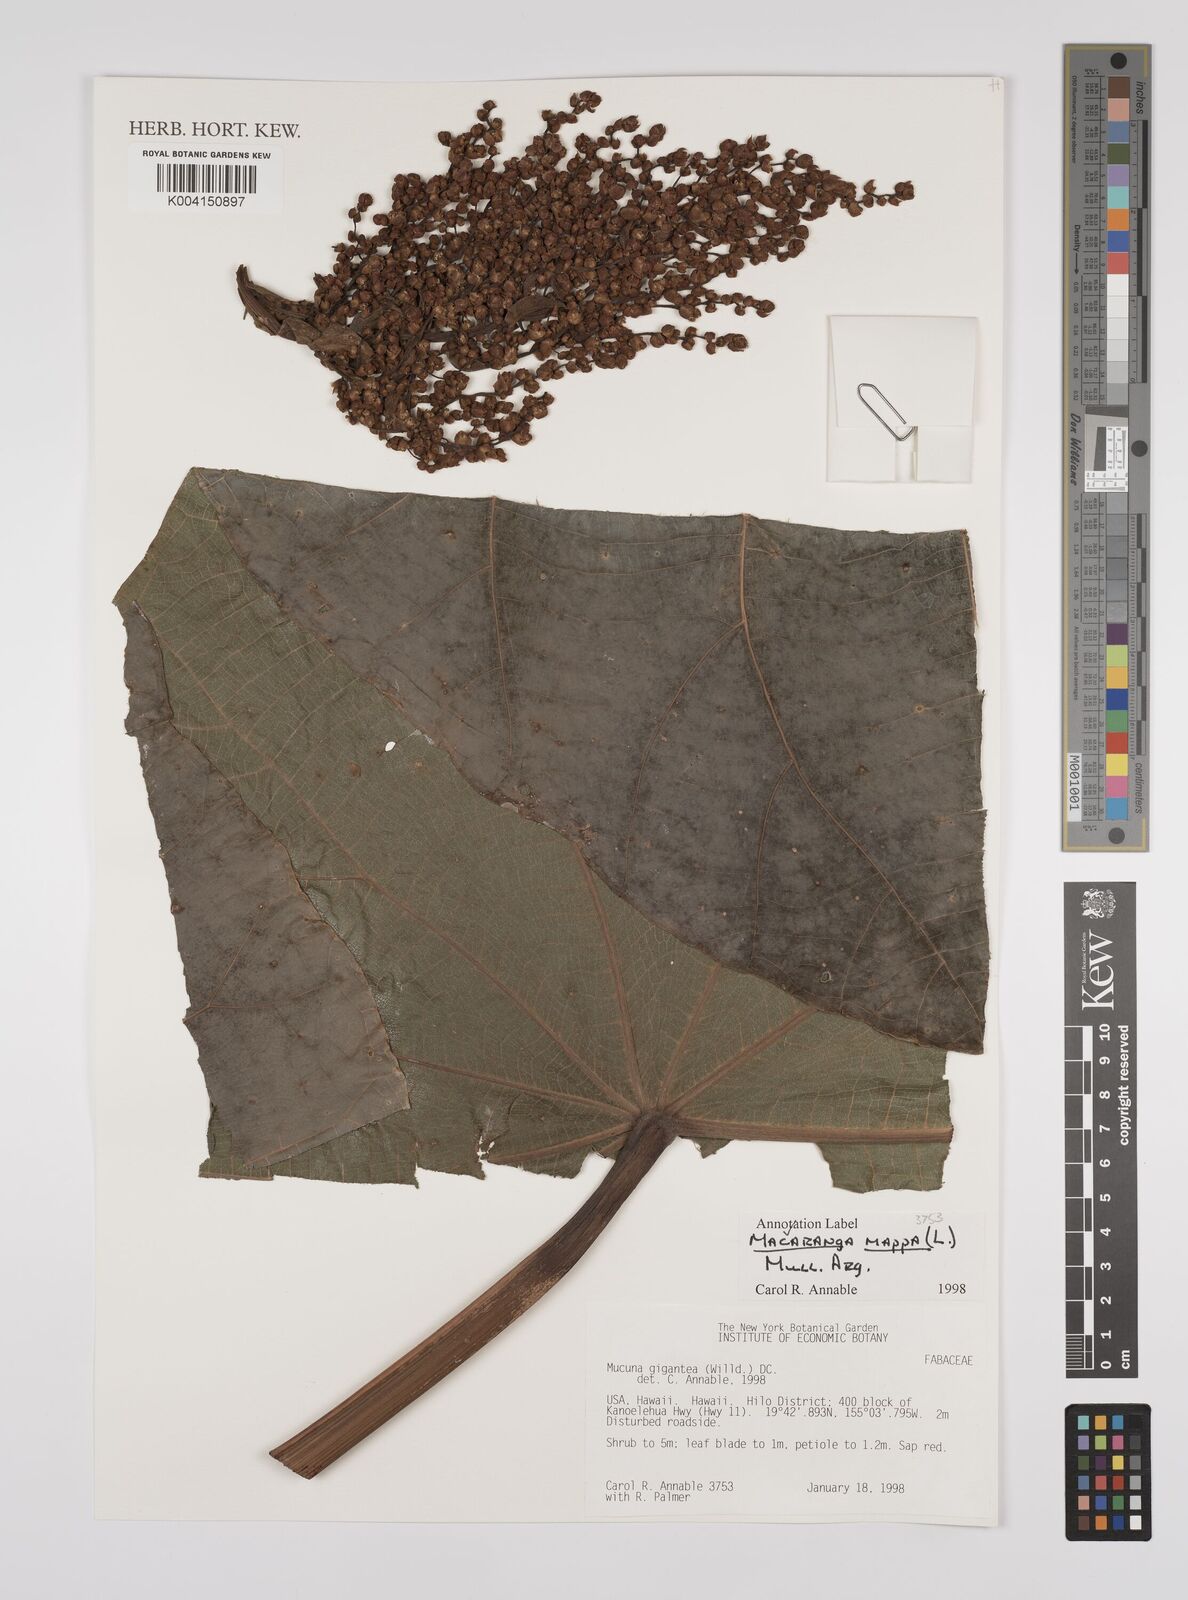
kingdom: Plantae
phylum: Tracheophyta
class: Magnoliopsida
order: Malpighiales
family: Euphorbiaceae
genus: Macaranga
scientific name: Macaranga mappa
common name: Pengua
